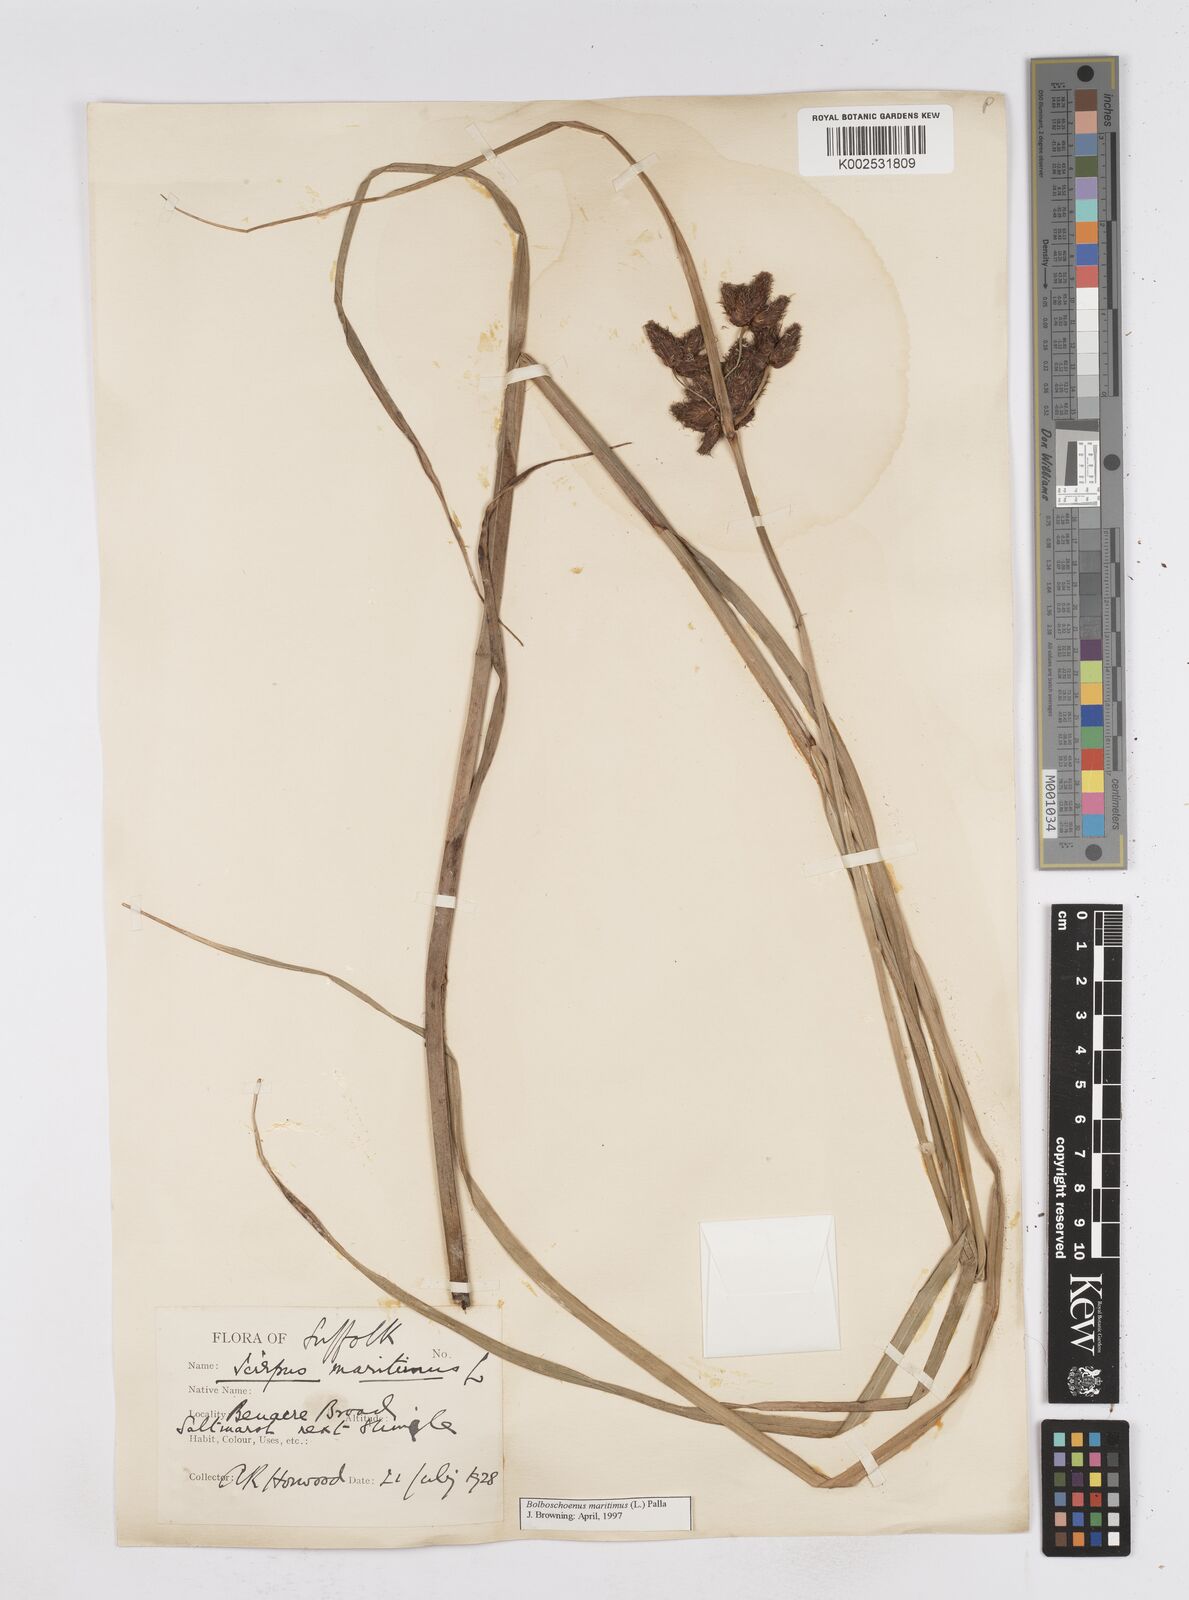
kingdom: Plantae
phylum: Tracheophyta
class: Liliopsida
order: Poales
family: Cyperaceae
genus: Bolboschoenus
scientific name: Bolboschoenus maritimus
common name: Sea club-rush
